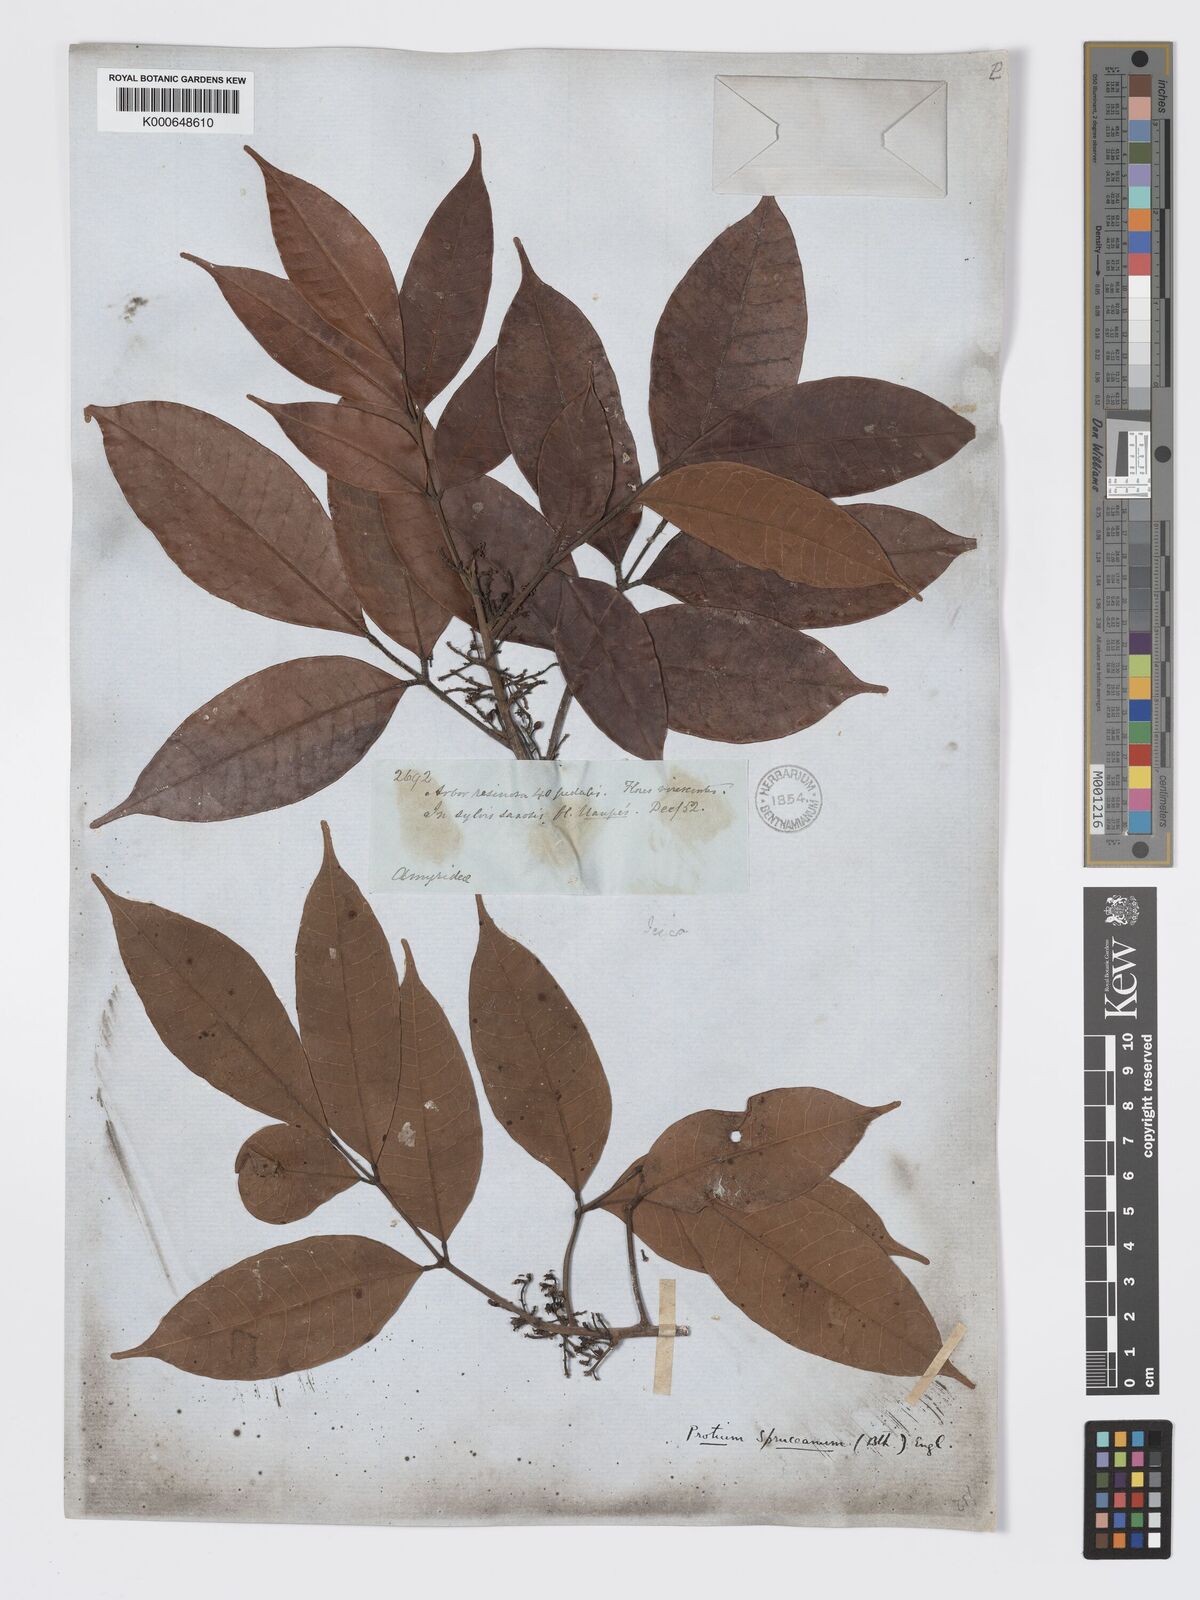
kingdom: Plantae
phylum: Tracheophyta
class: Magnoliopsida
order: Sapindales
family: Burseraceae
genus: Protium
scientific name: Protium spruceanum
